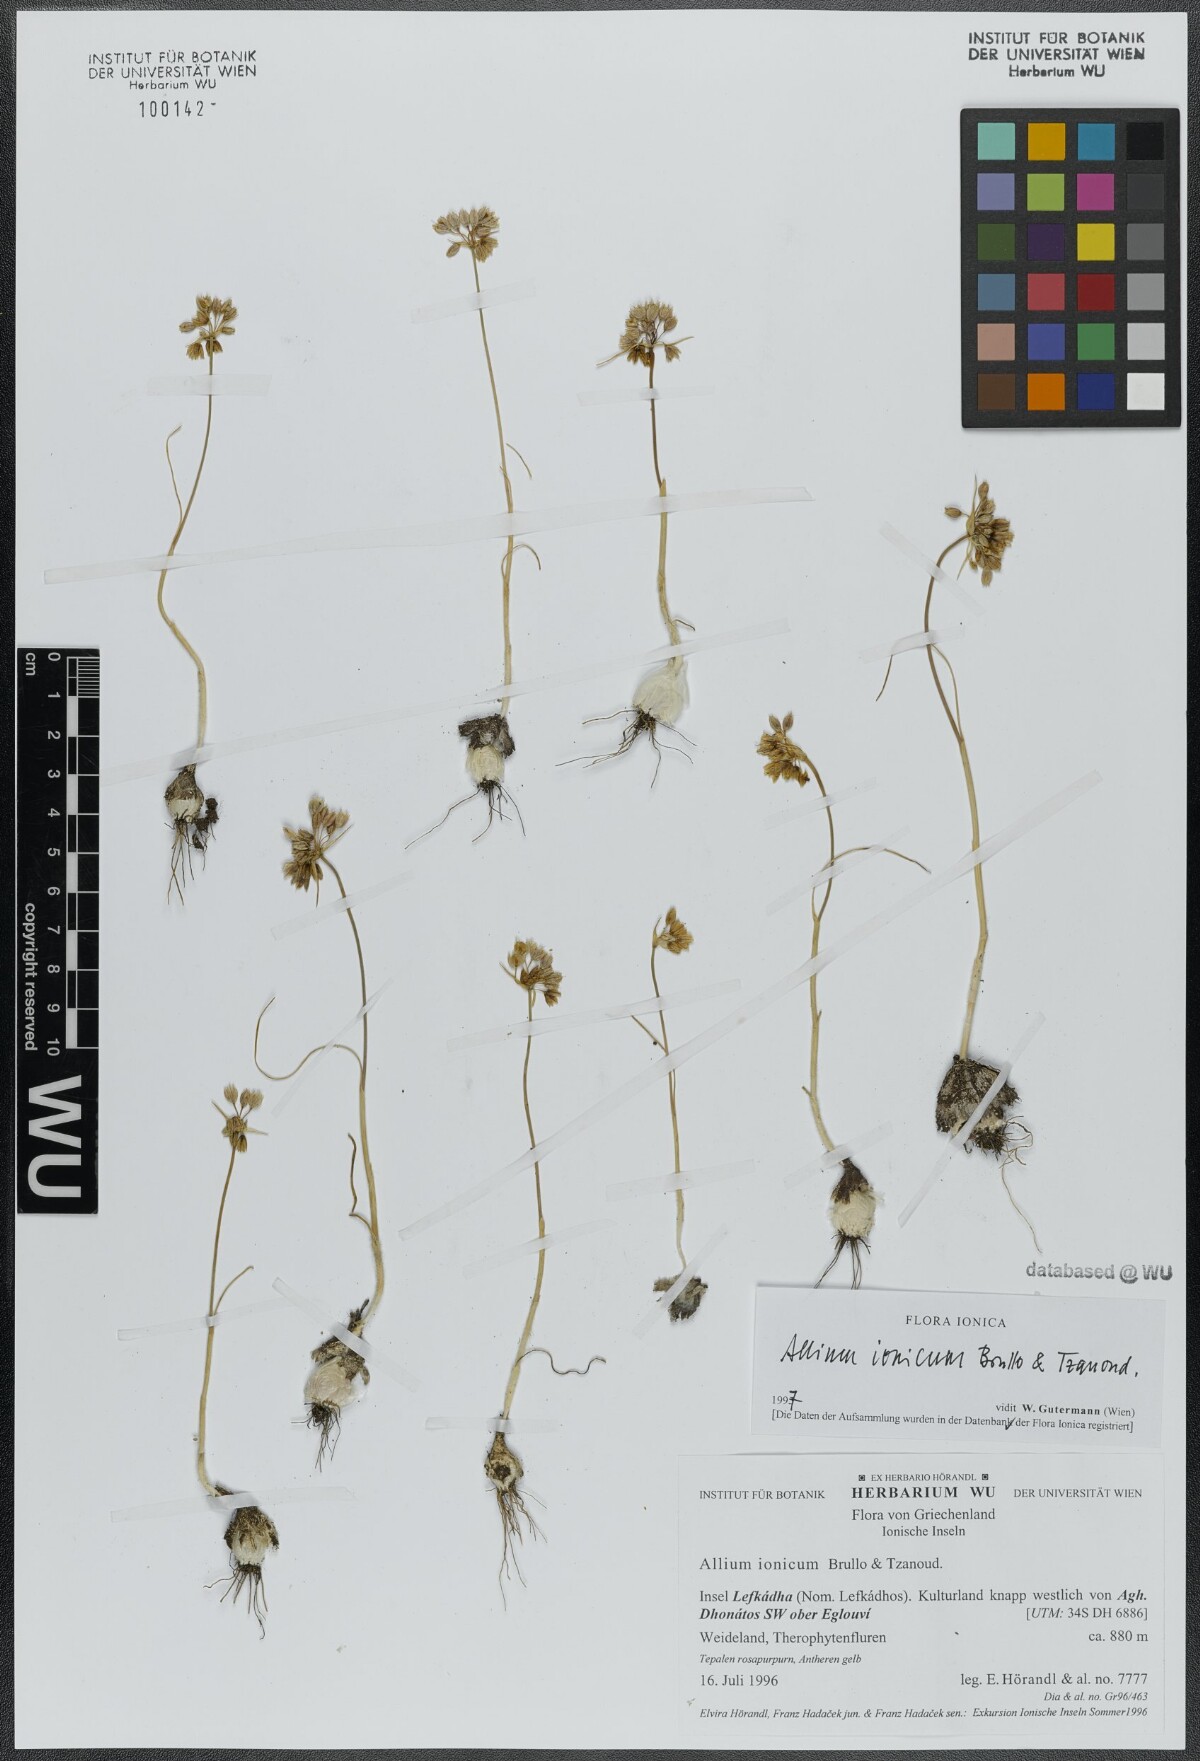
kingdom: Plantae
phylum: Tracheophyta
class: Liliopsida
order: Asparagales
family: Amaryllidaceae
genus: Allium
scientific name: Allium ionicum
